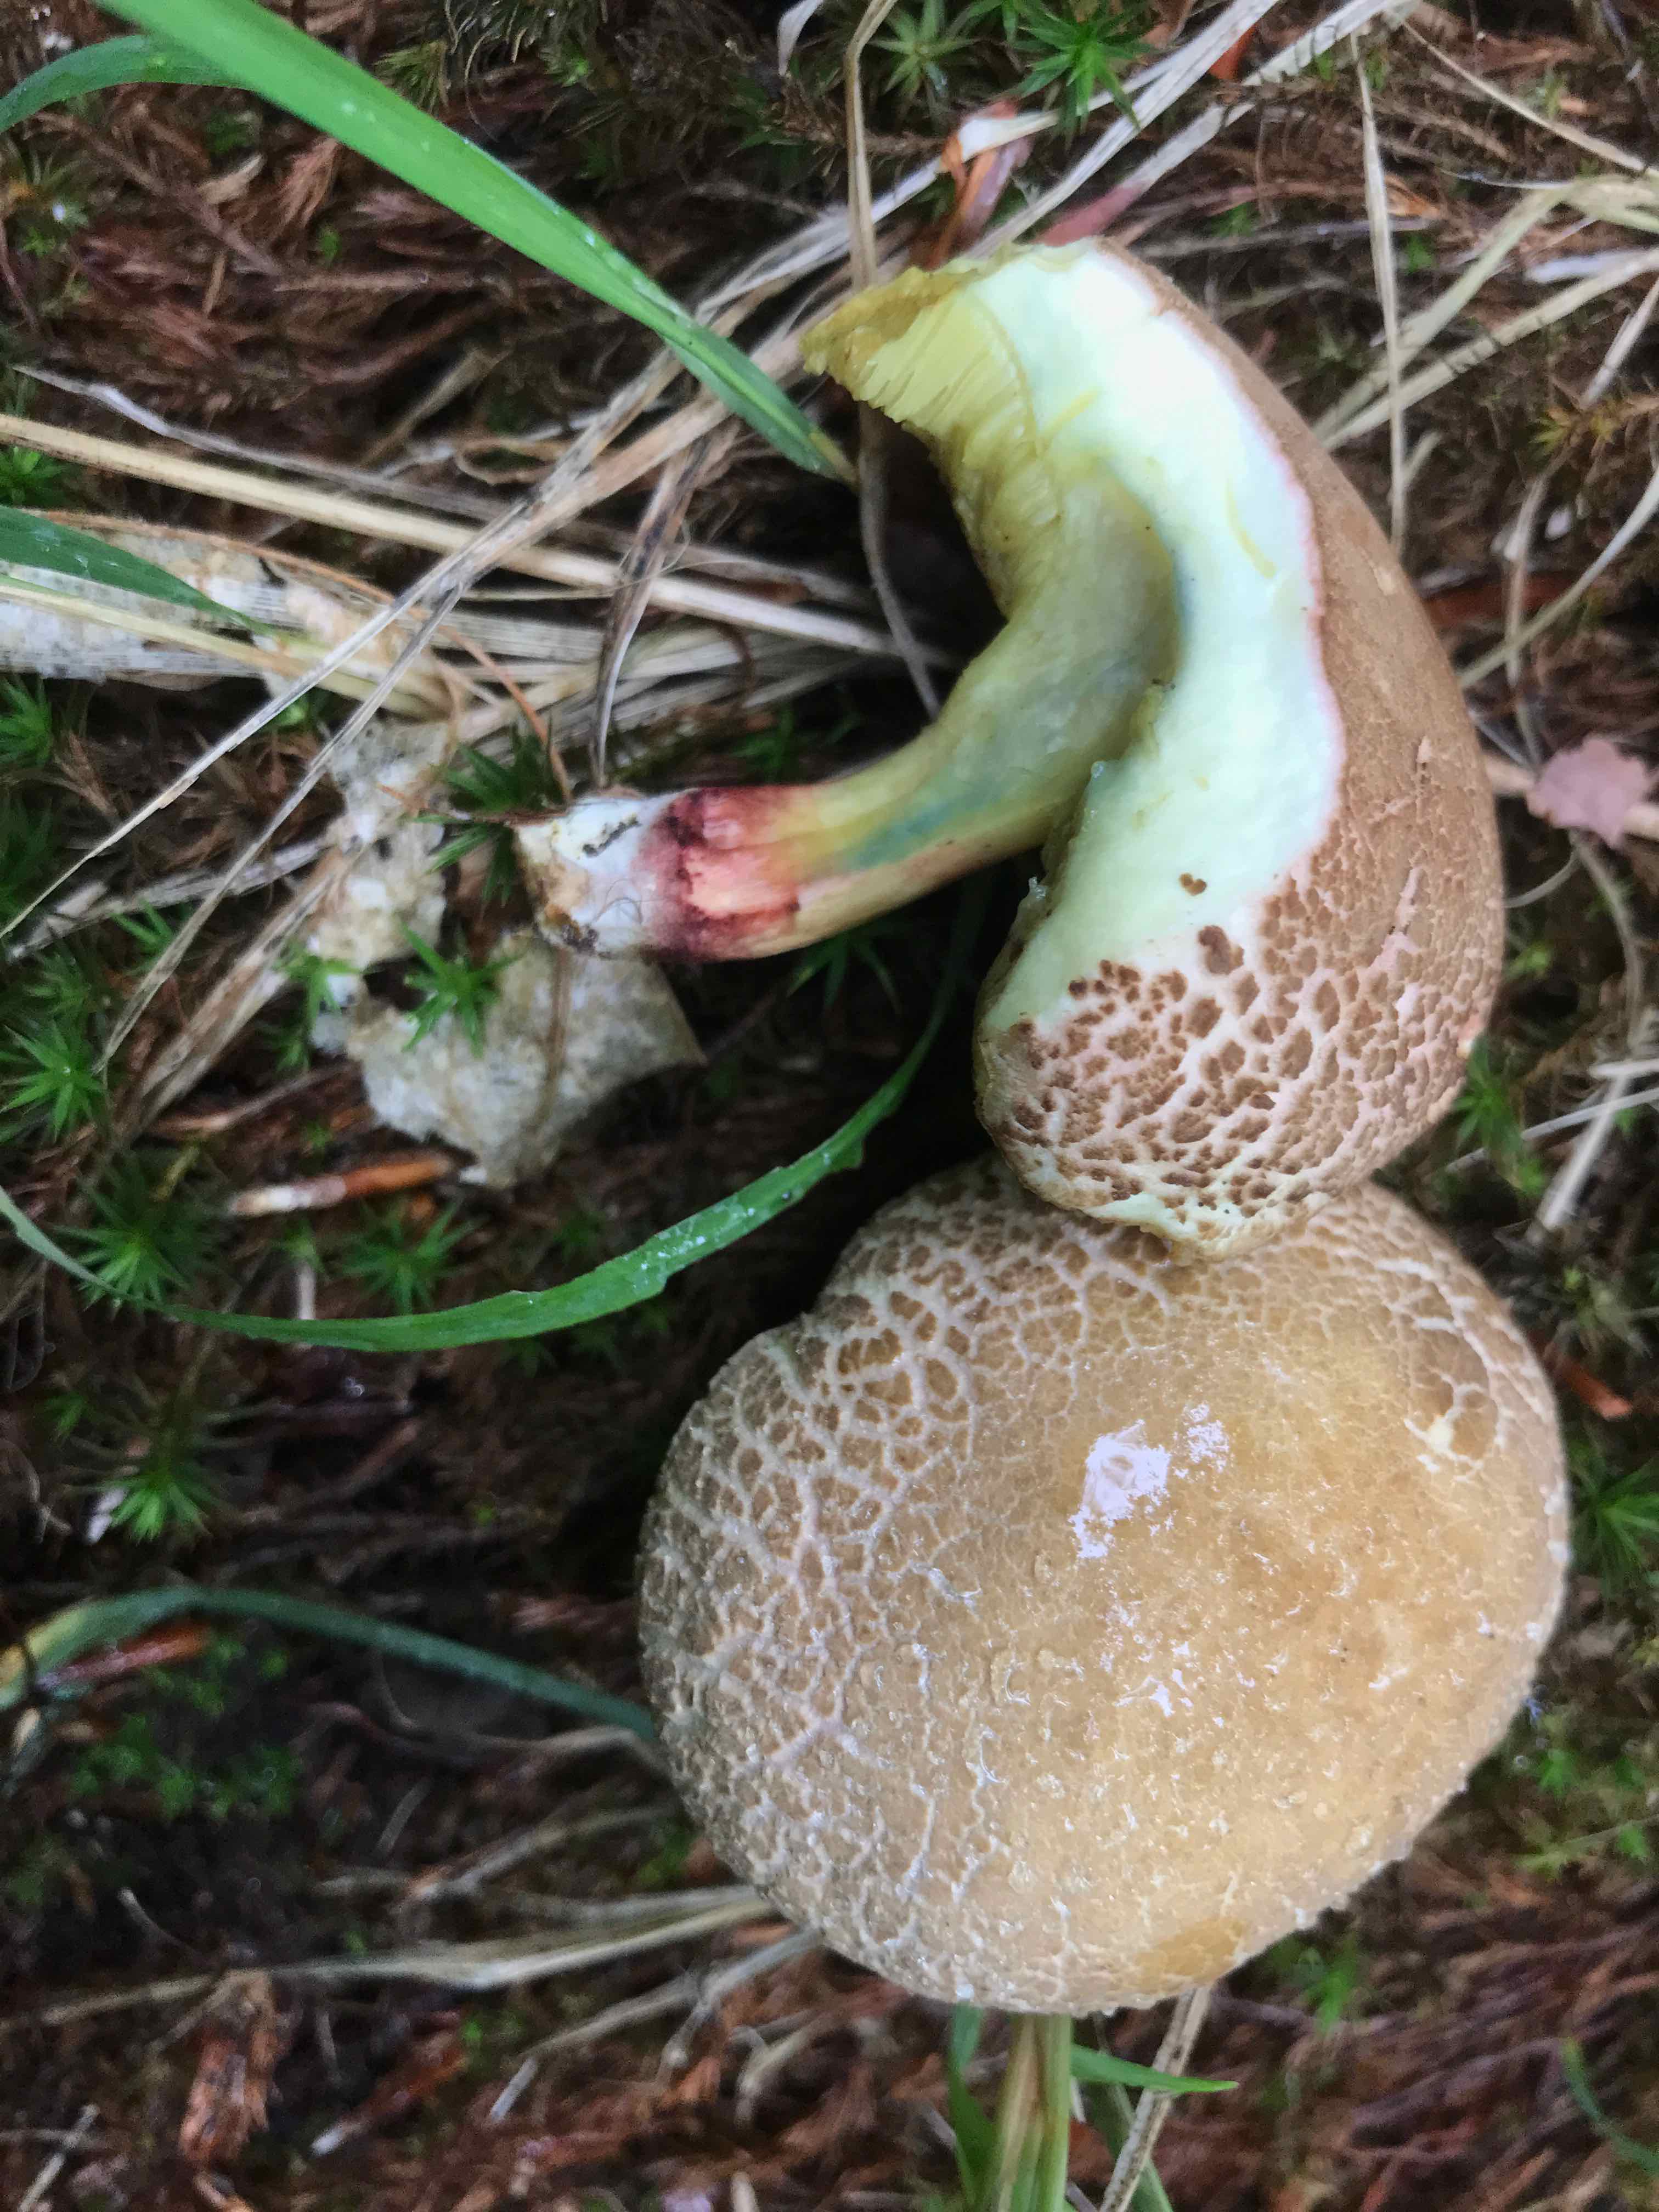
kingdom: Fungi
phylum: Basidiomycota
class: Agaricomycetes
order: Boletales
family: Boletaceae
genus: Xerocomellus
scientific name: Xerocomellus cisalpinus
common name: finsprukken rørhat
